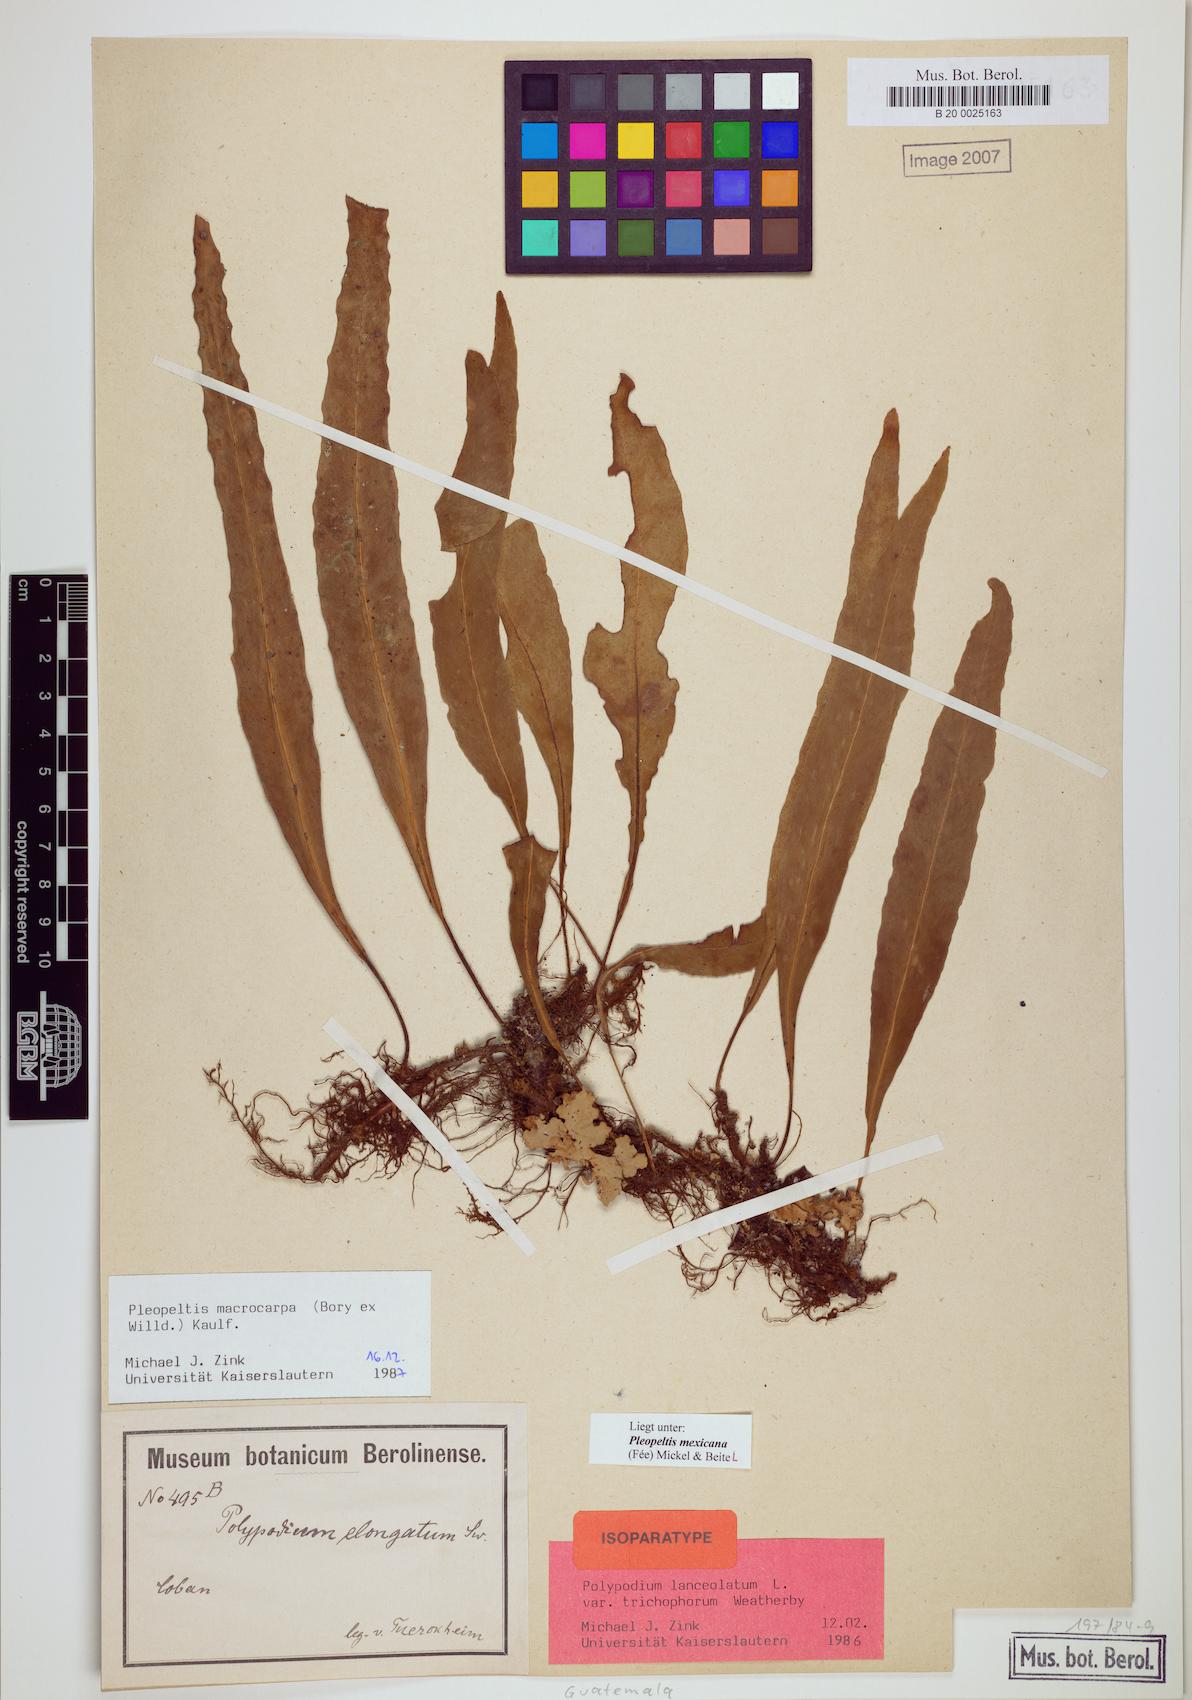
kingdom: Plantae
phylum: Tracheophyta
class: Polypodiopsida
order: Polypodiales
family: Polypodiaceae
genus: Pleopeltis
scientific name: Pleopeltis mexicana
